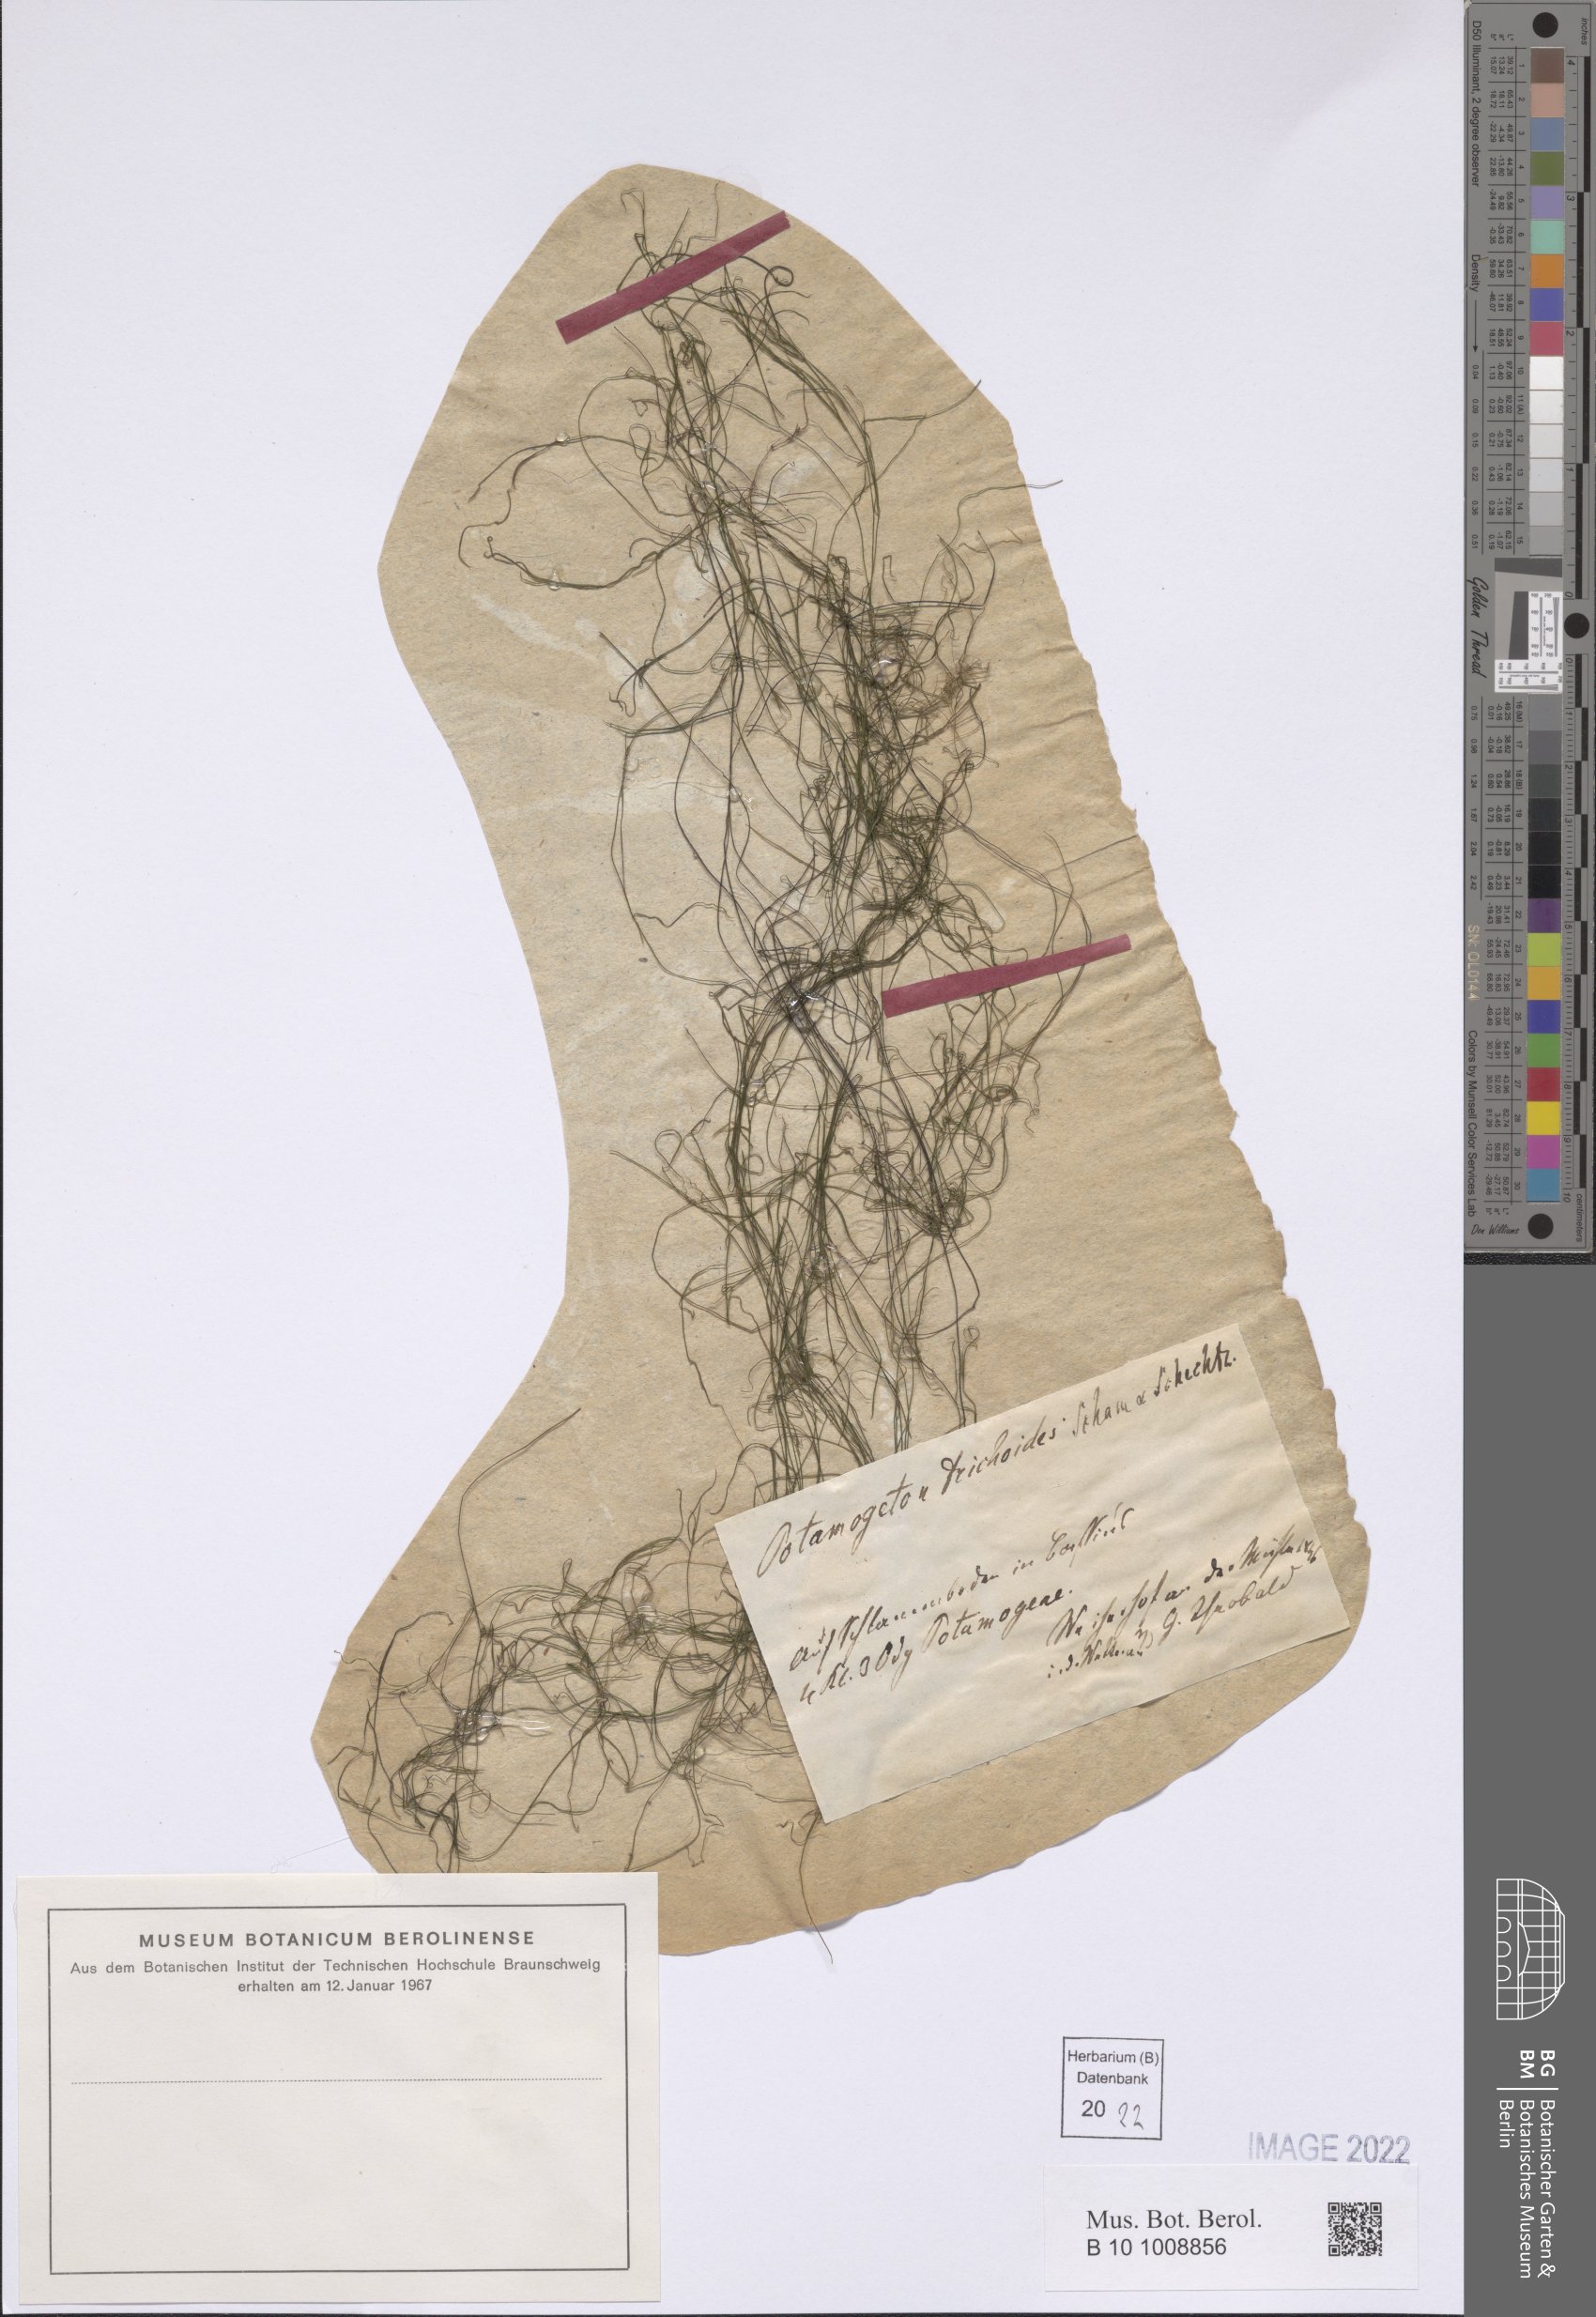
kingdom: Plantae
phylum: Tracheophyta
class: Liliopsida
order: Alismatales
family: Potamogetonaceae
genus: Potamogeton
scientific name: Potamogeton trichoides
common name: Hairlike pondweed
